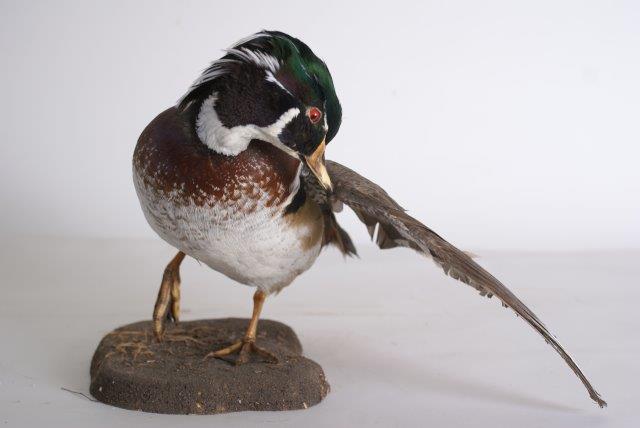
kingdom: Animalia
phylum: Chordata
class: Aves
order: Anseriformes
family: Anatidae
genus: Aix
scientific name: Aix sponsa
